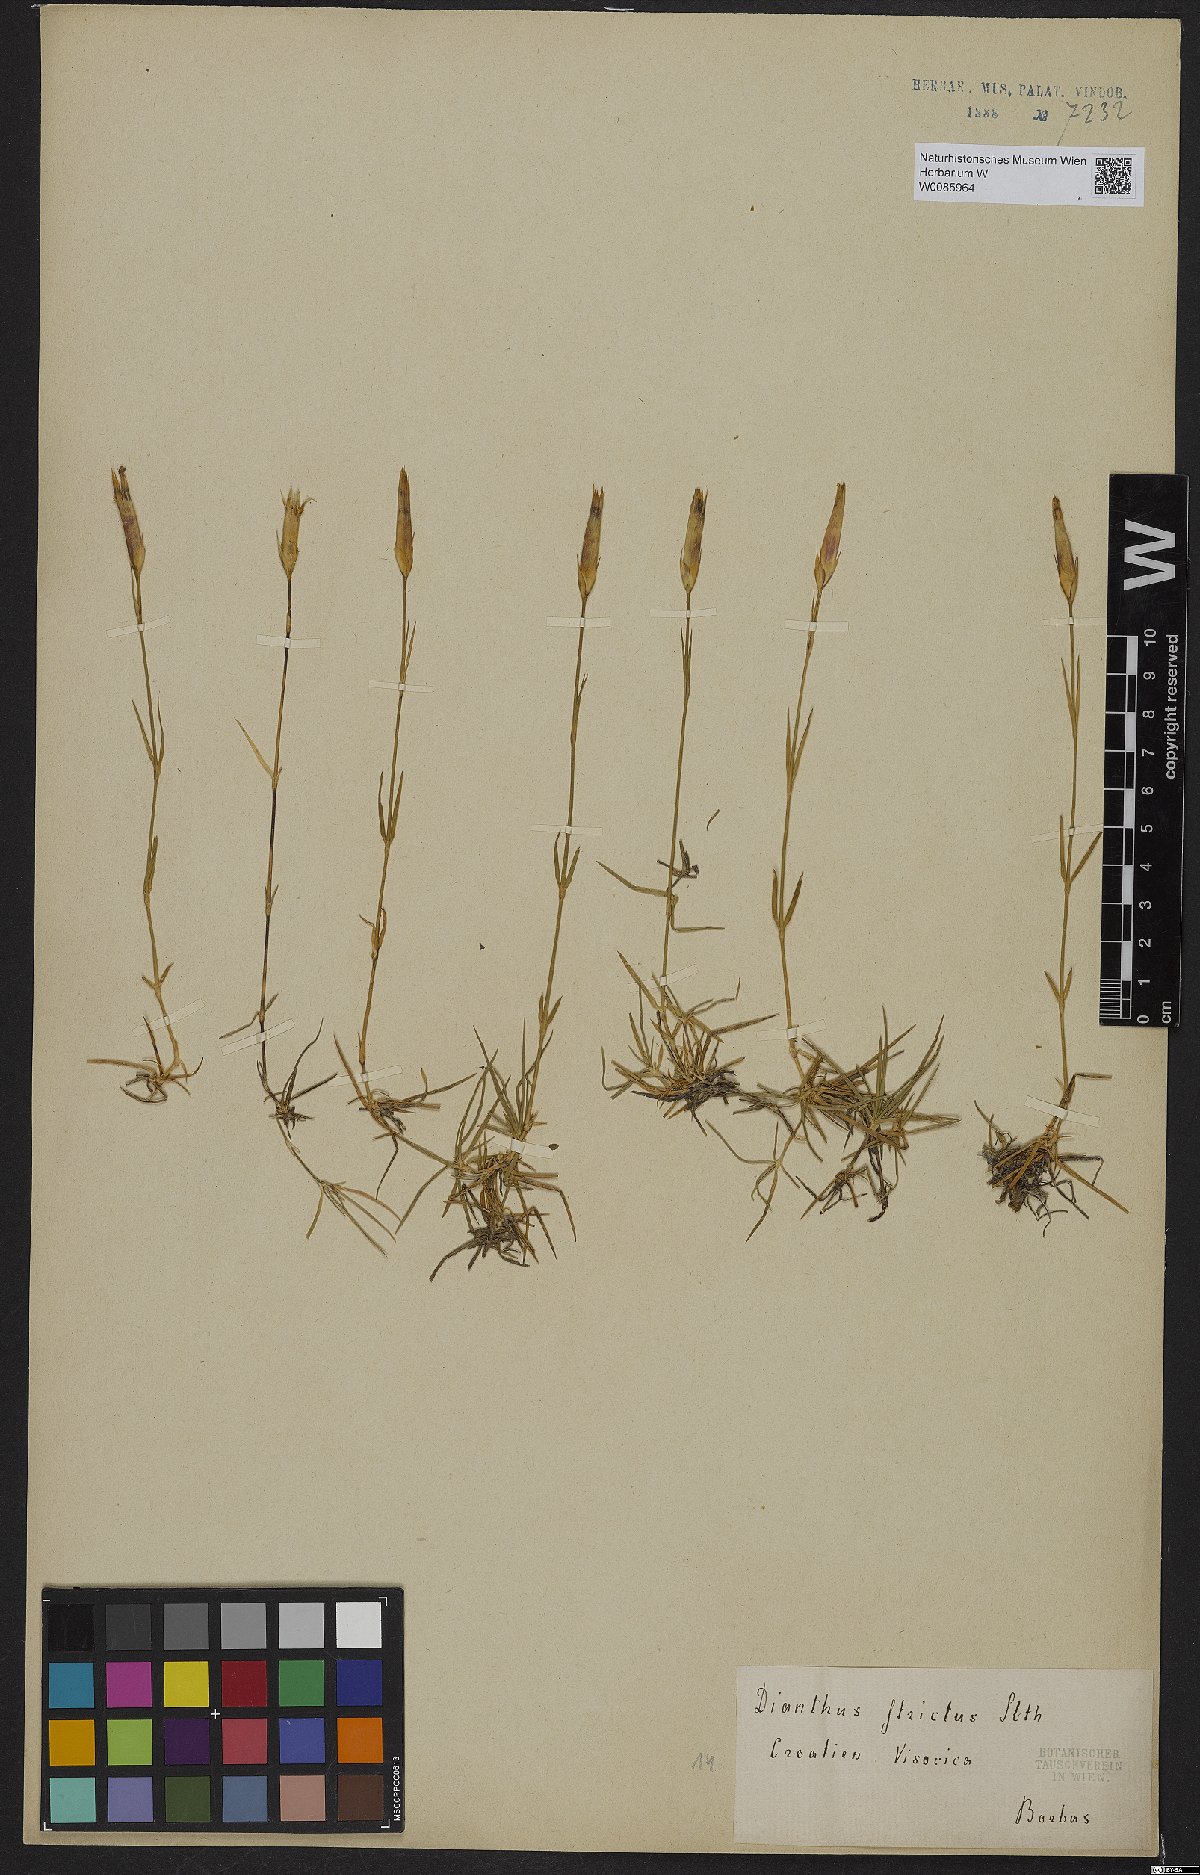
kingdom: Plantae
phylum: Tracheophyta
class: Magnoliopsida
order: Caryophyllales
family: Caryophyllaceae
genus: Dianthus
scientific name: Dianthus petraeus
